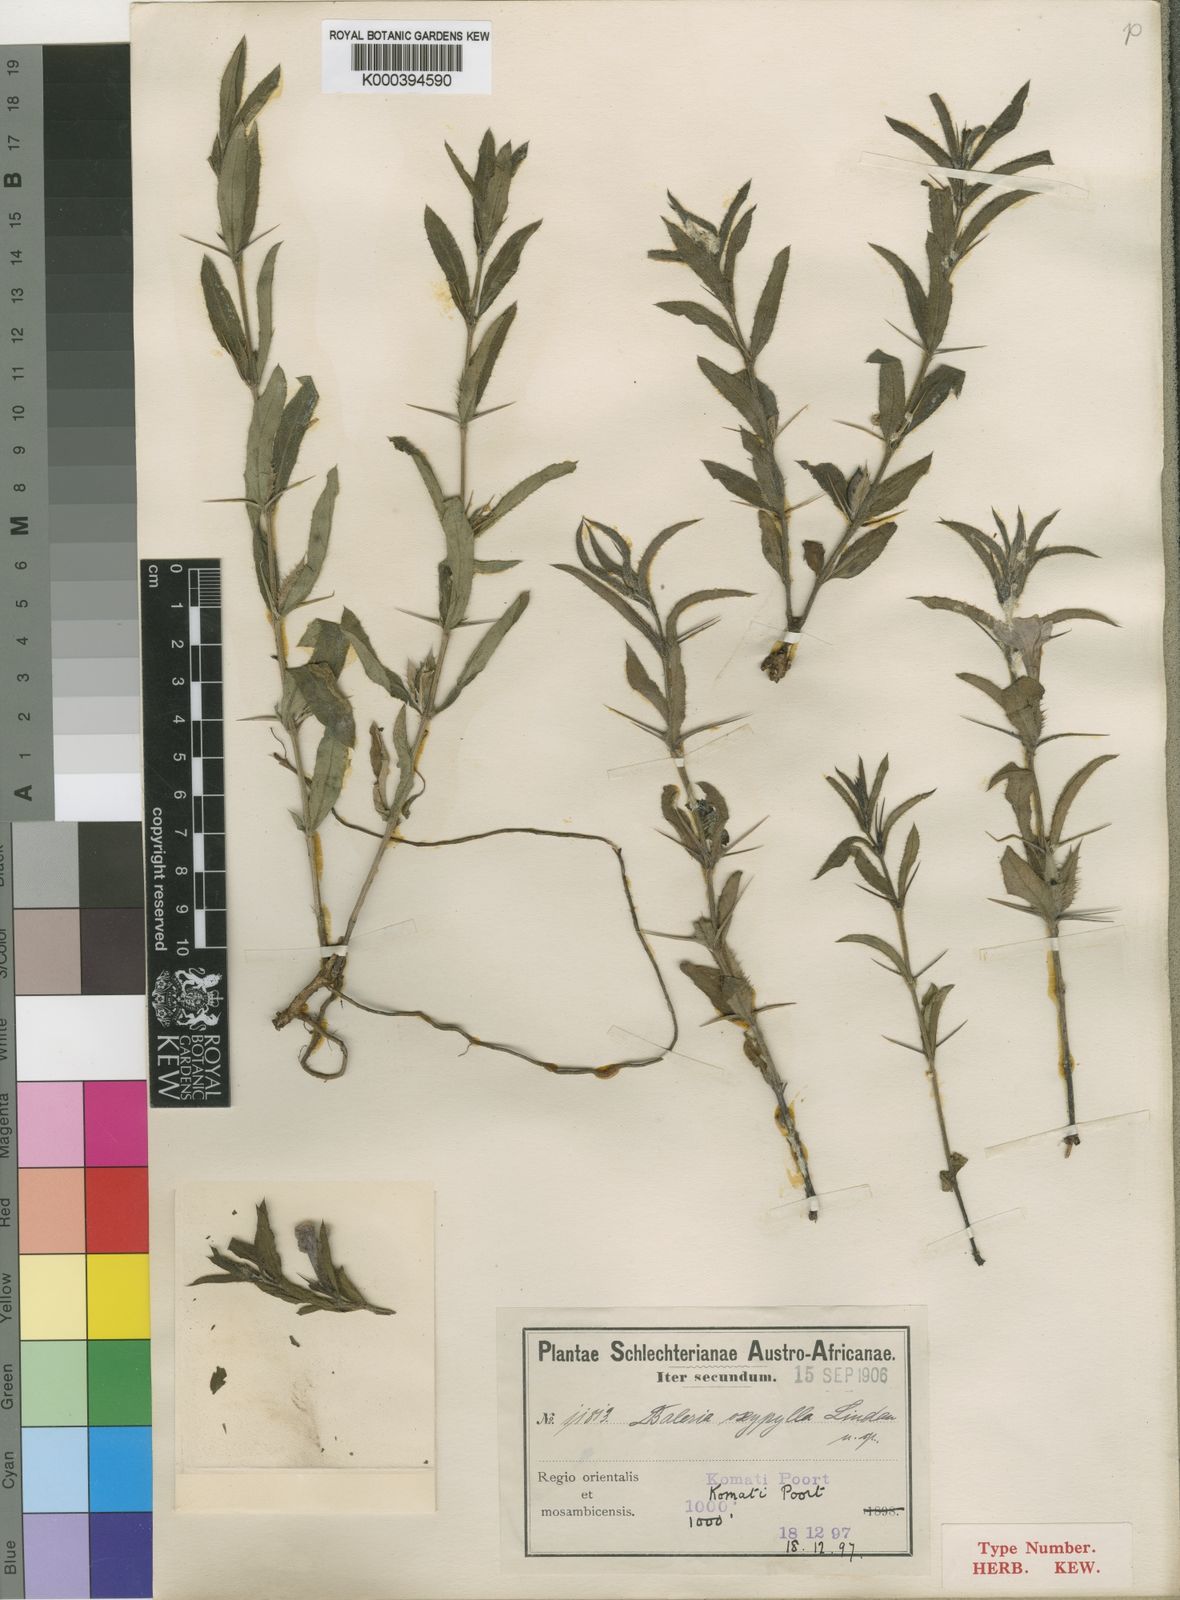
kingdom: Plantae
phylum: Tracheophyta
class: Magnoliopsida
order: Lamiales
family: Acanthaceae
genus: Barleria
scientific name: Barleria oxyphylla
